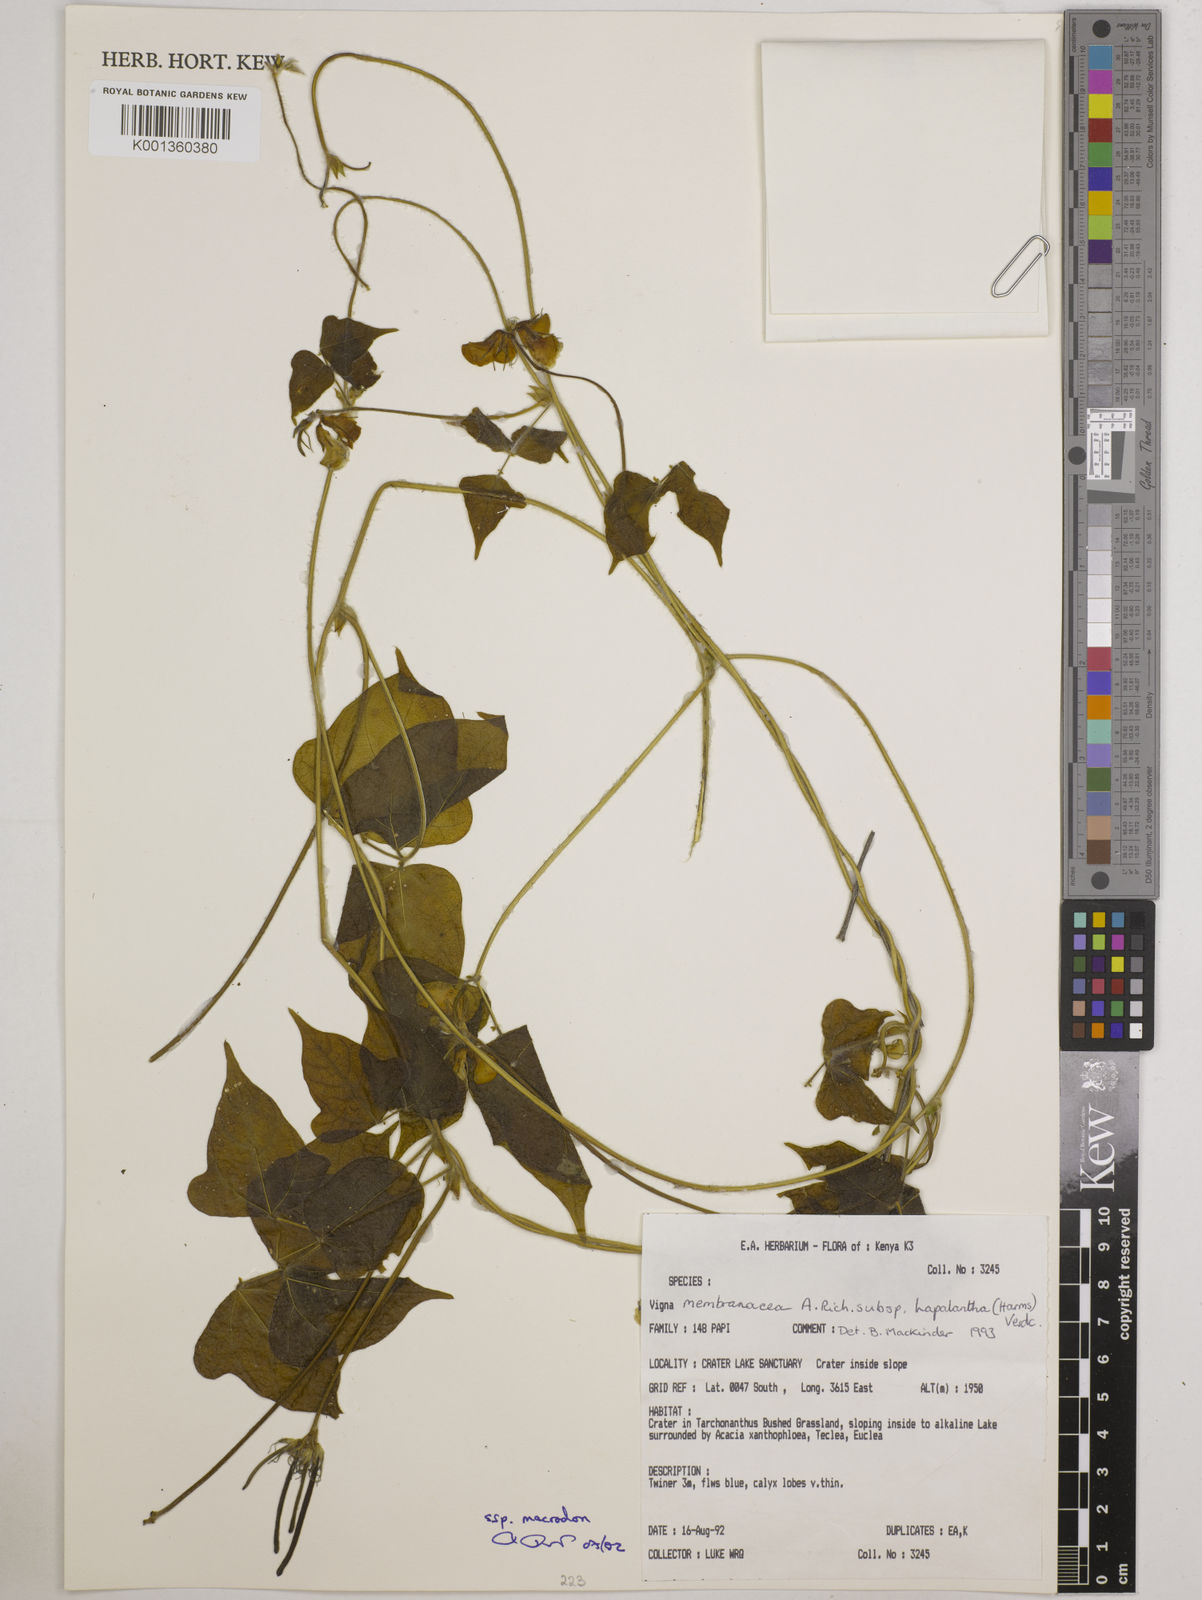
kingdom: Plantae
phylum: Tracheophyta
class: Magnoliopsida
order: Fabales
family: Fabaceae
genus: Vigna
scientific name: Vigna
